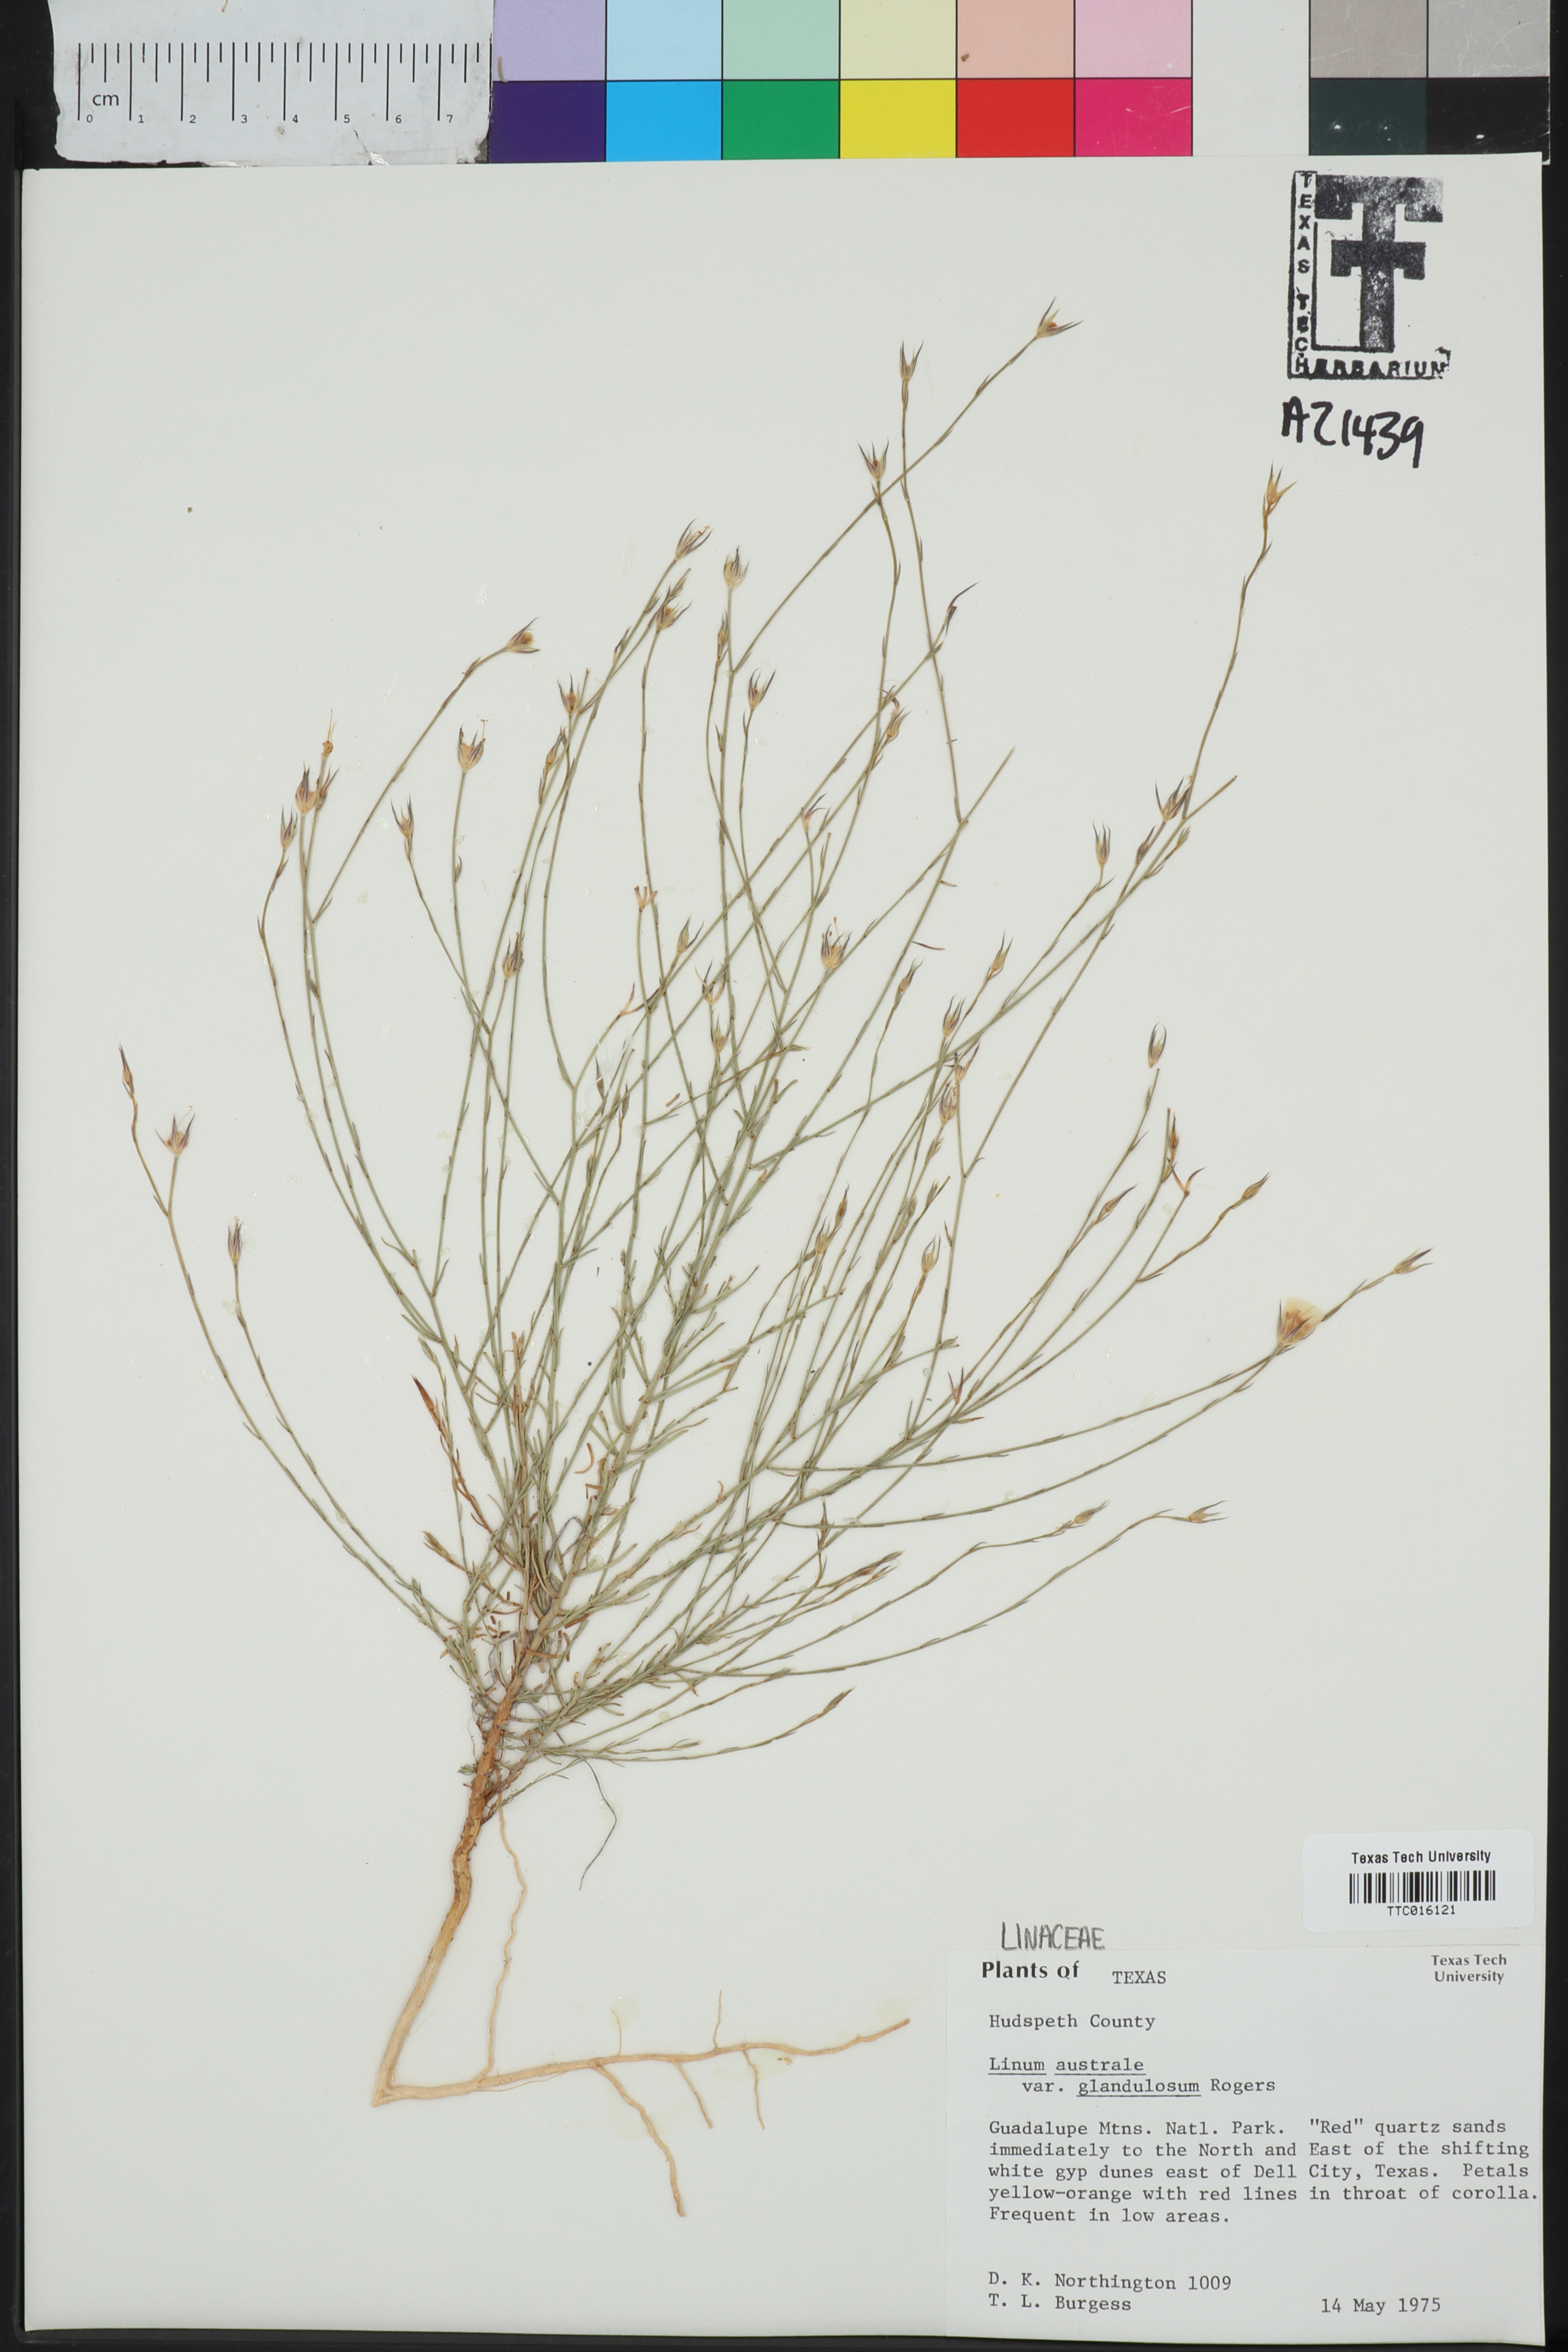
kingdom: Plantae
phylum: Tracheophyta
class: Magnoliopsida
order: Malpighiales
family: Linaceae
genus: Linum
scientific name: Linum australe
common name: Small yellow flax
